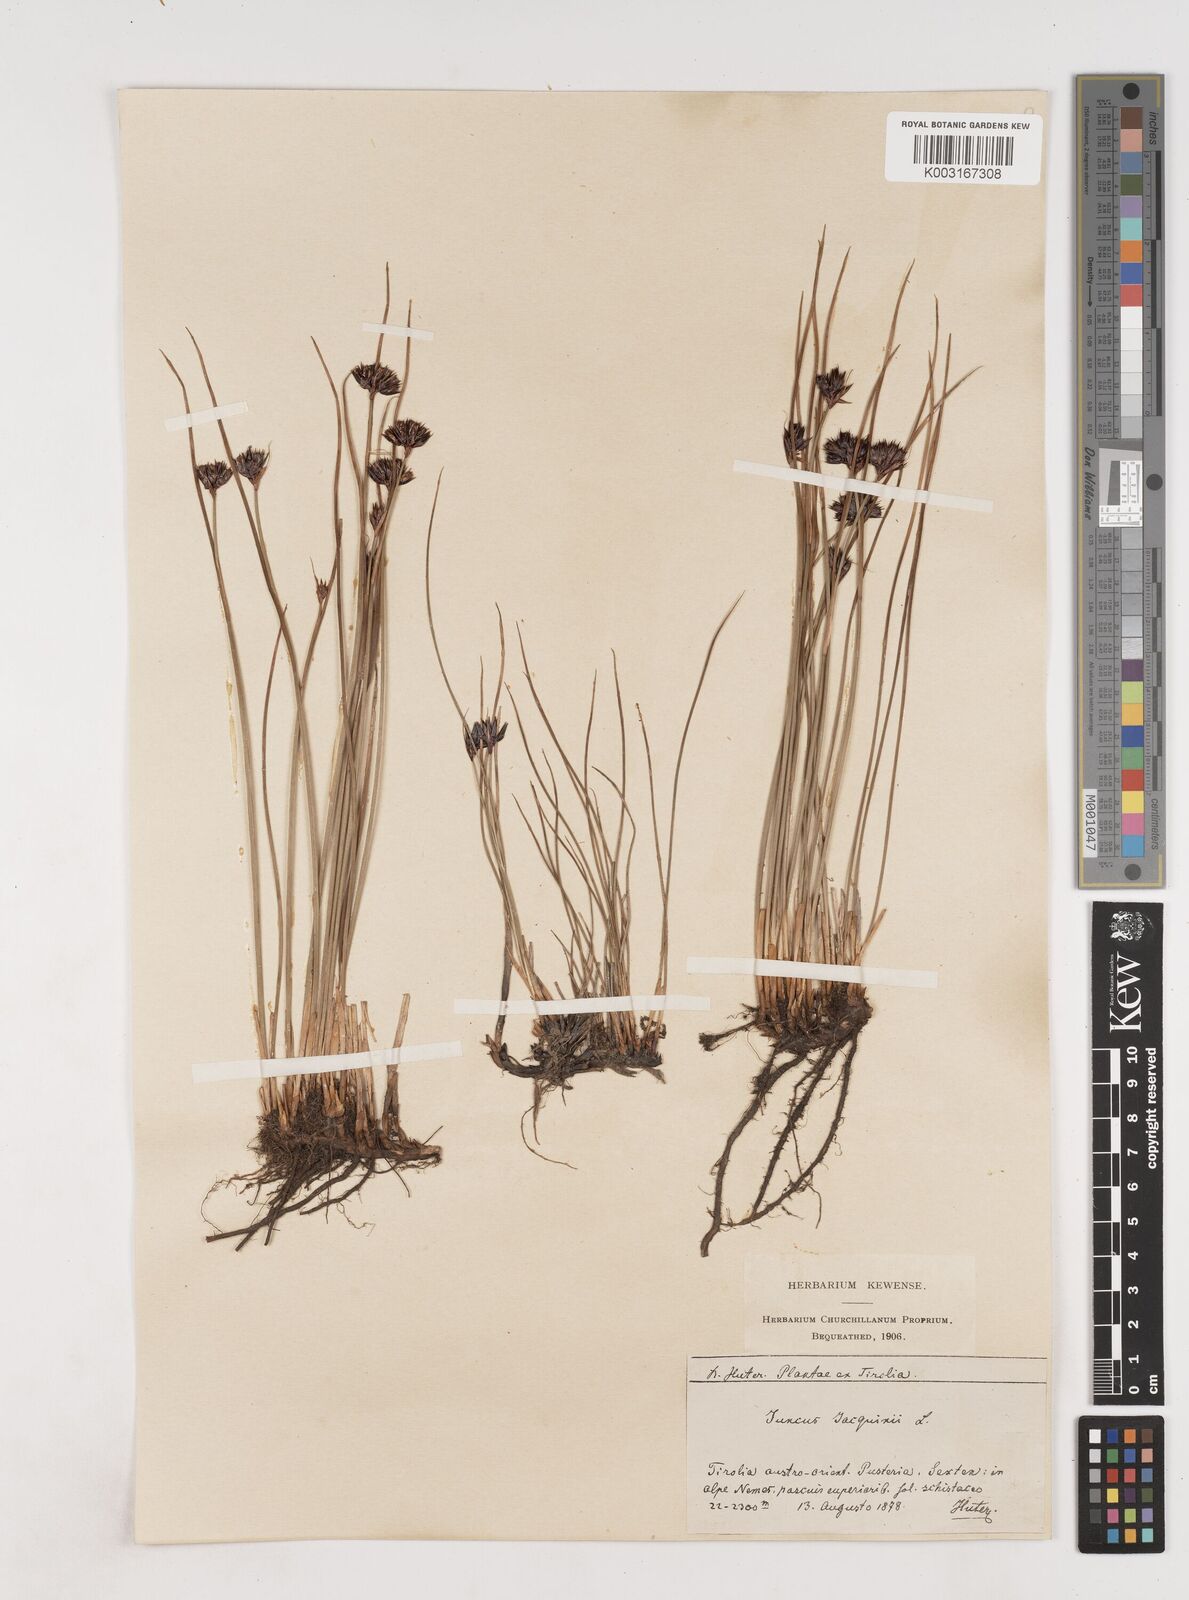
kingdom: Plantae
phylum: Tracheophyta
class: Liliopsida
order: Poales
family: Juncaceae
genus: Juncus
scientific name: Juncus jacquinii
